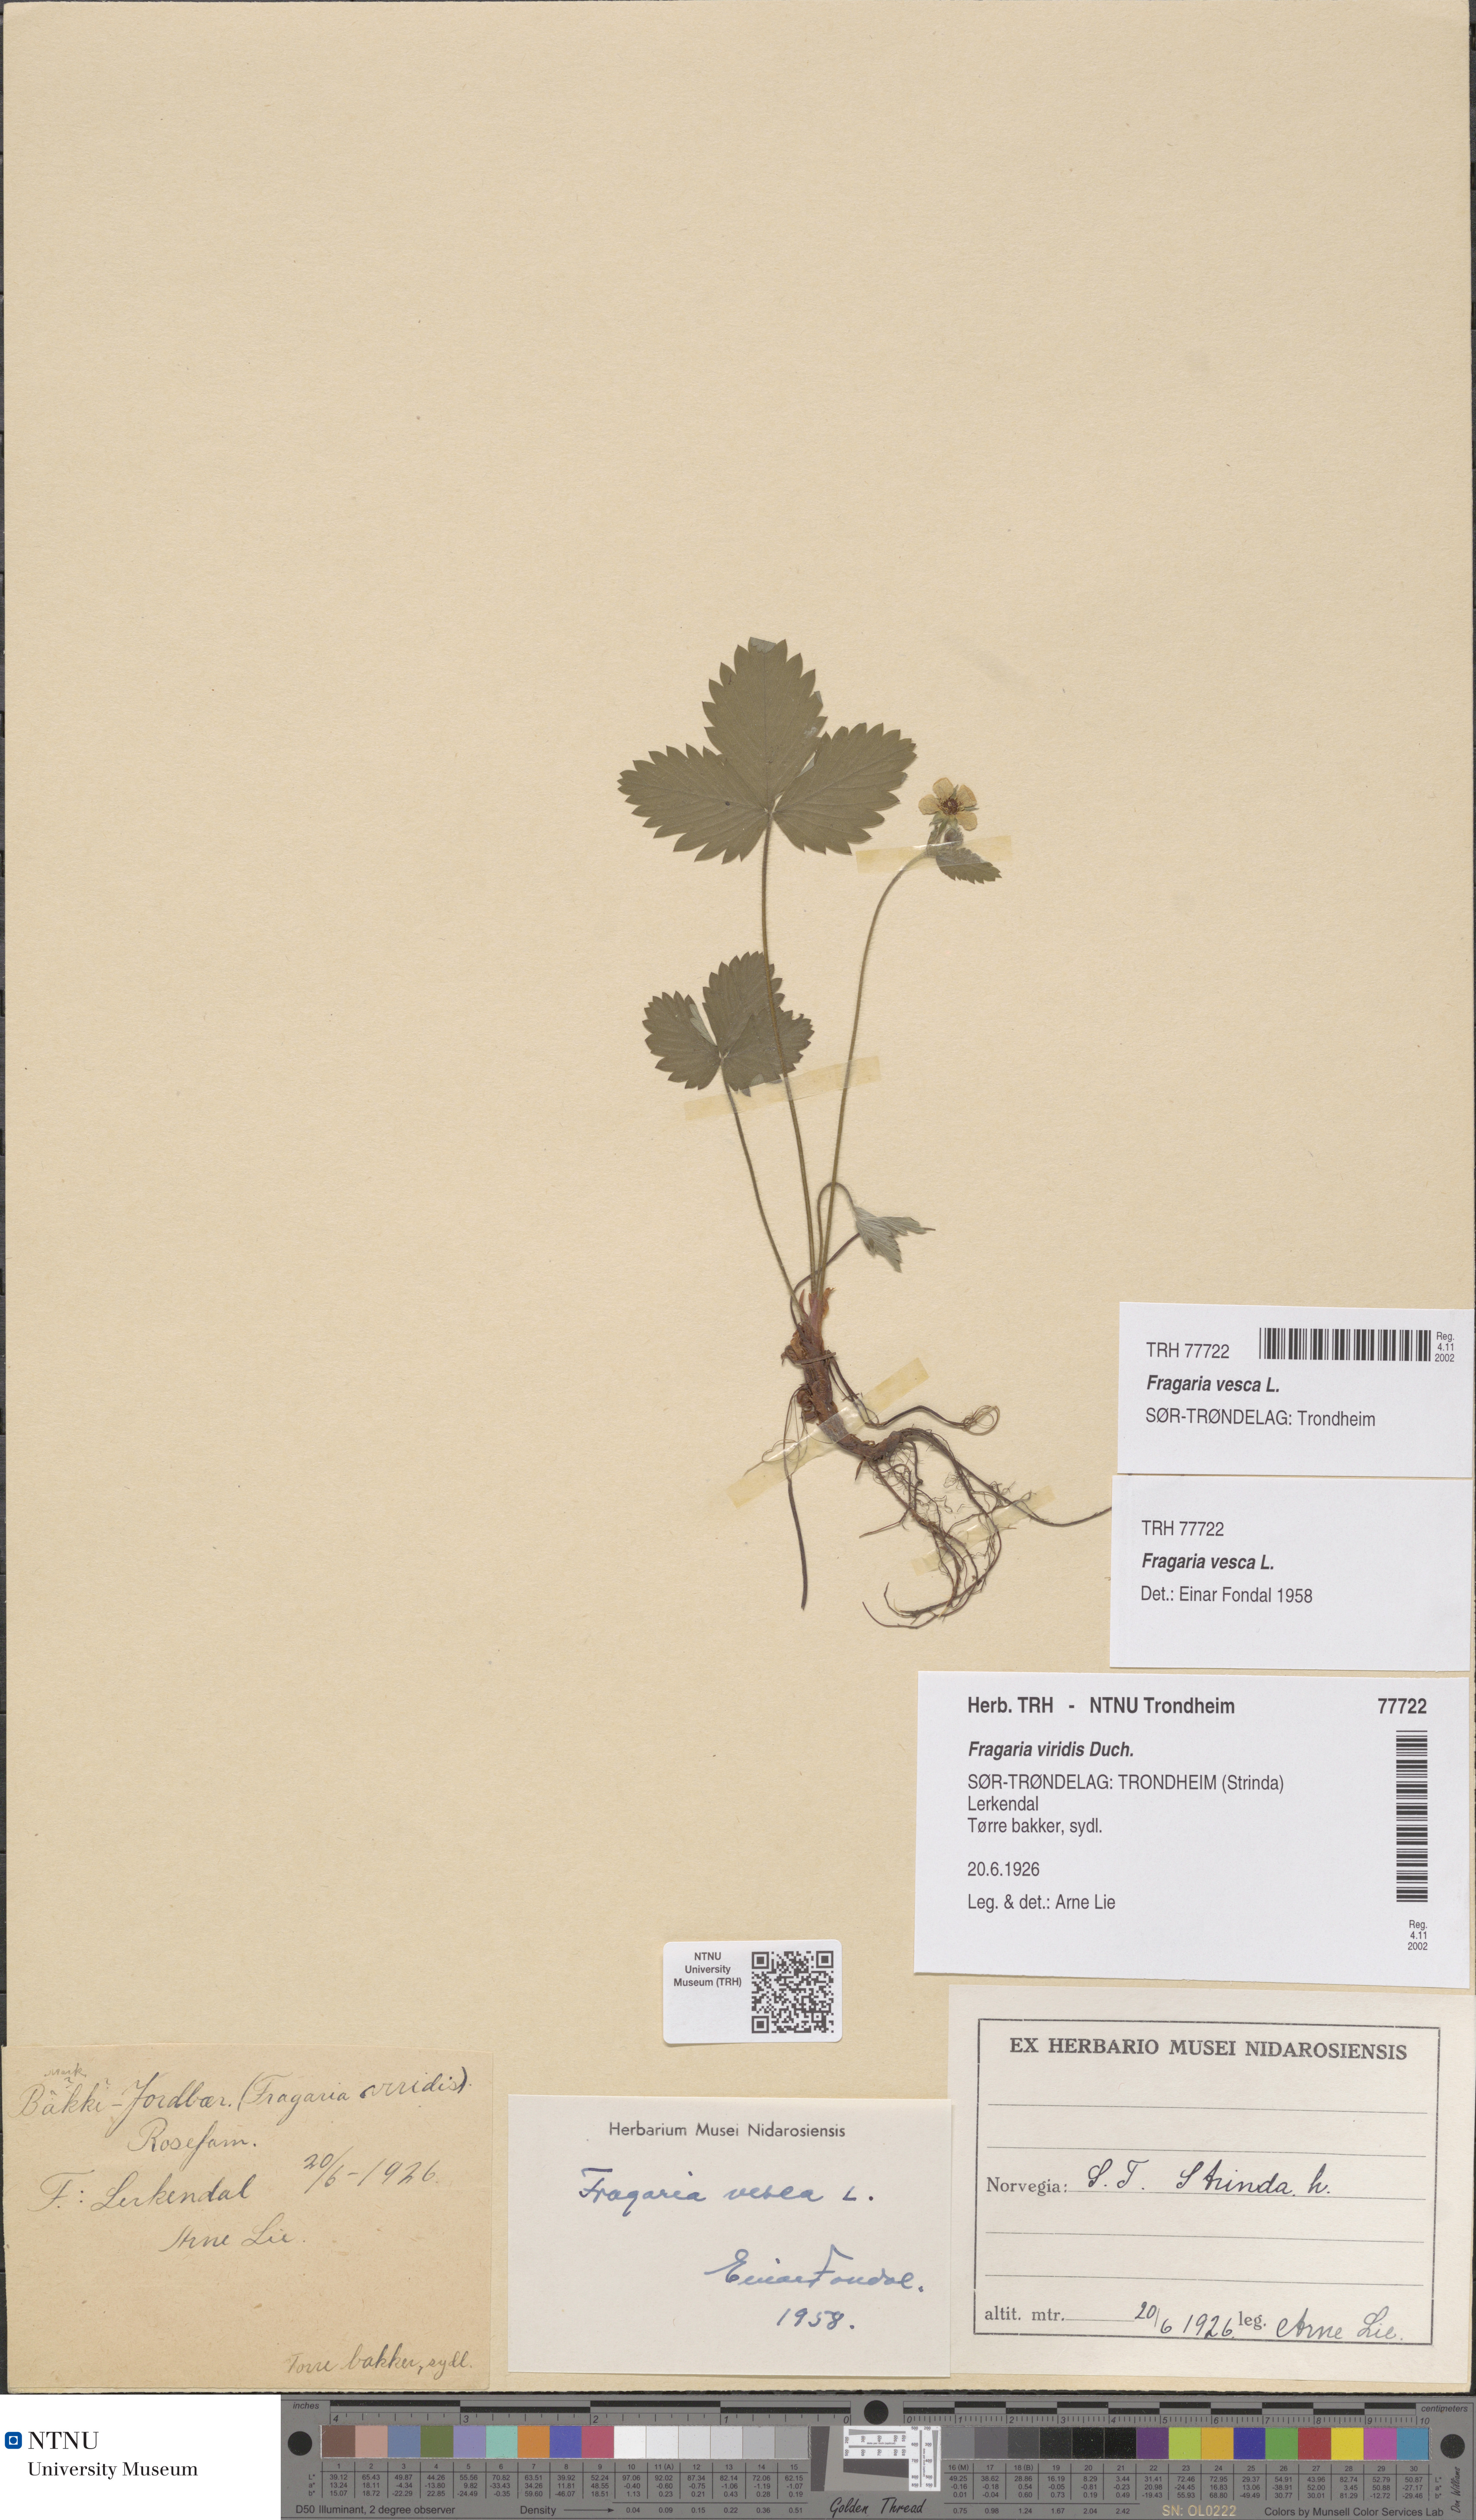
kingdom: Plantae
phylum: Tracheophyta
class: Magnoliopsida
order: Rosales
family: Rosaceae
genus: Fragaria
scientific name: Fragaria vesca
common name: Wild strawberry
